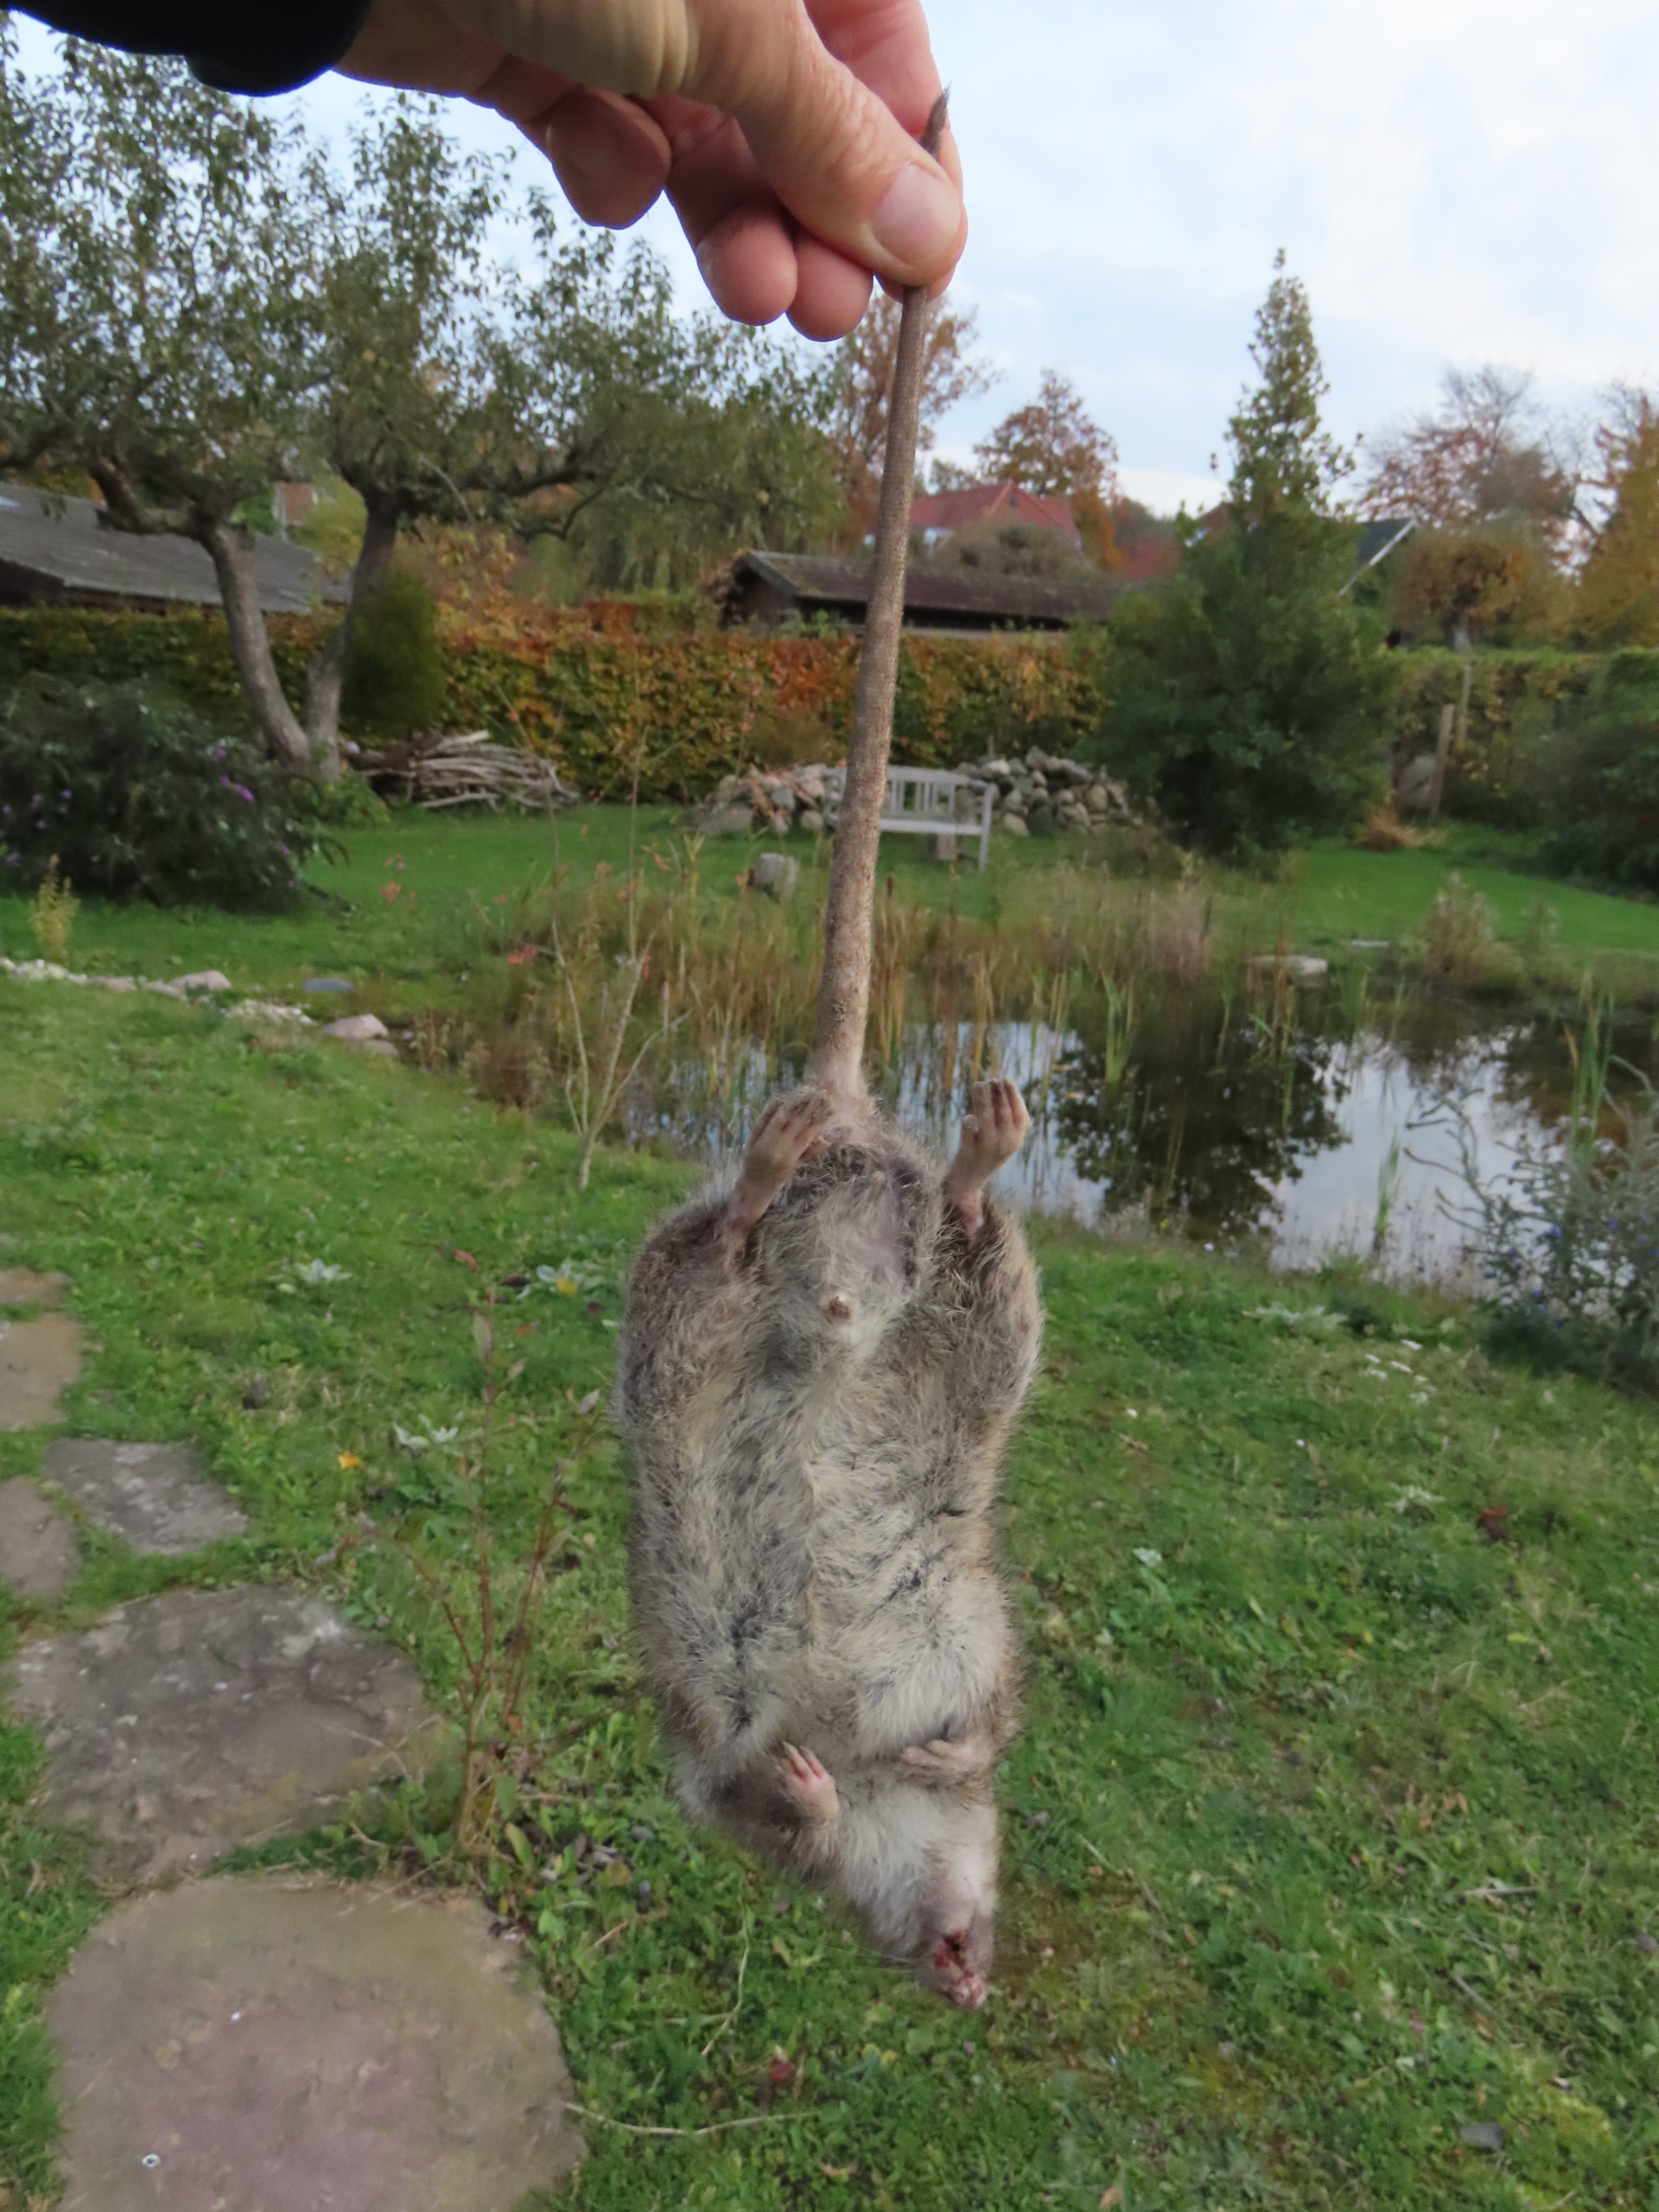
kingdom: Animalia
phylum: Chordata
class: Mammalia
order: Rodentia
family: Muridae
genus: Rattus
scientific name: Rattus norvegicus
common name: Brun rotte
